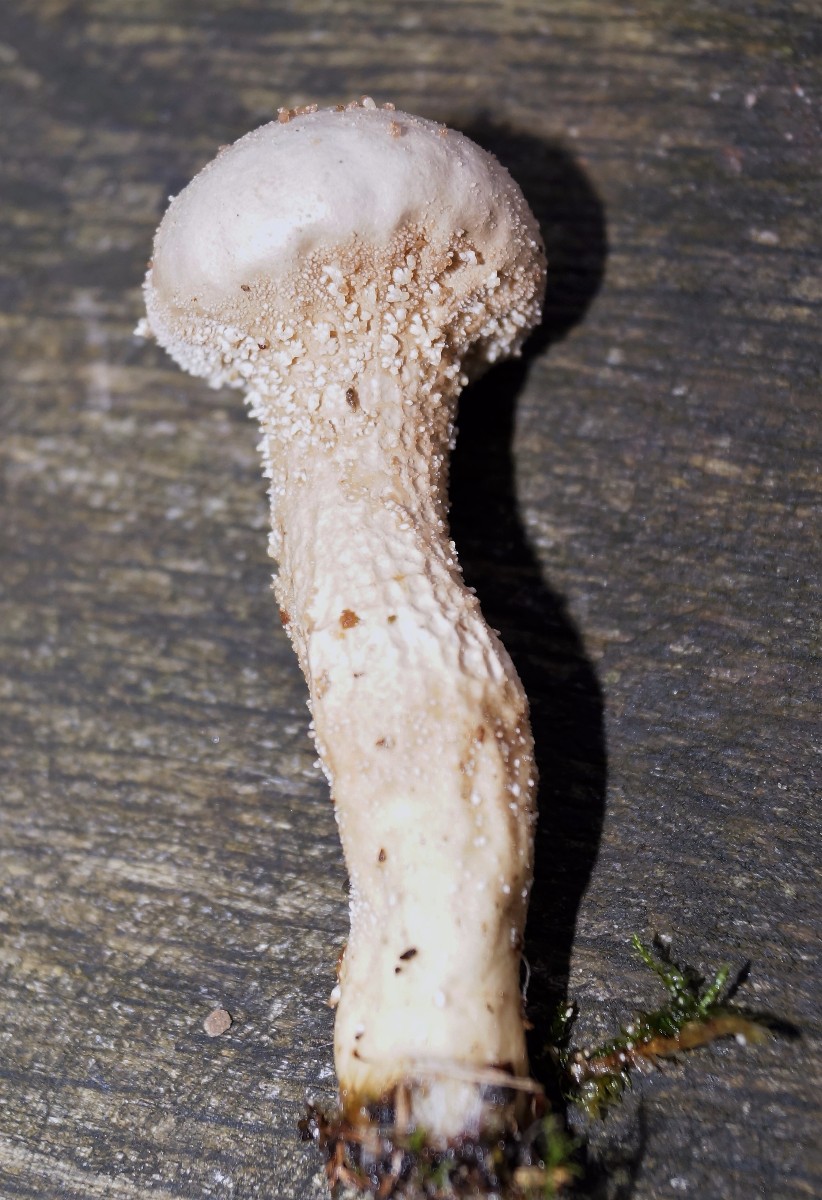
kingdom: Fungi
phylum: Basidiomycota
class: Agaricomycetes
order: Agaricales
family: Lycoperdaceae
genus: Lycoperdon
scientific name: Lycoperdon excipuliforme
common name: højstokket støvbold
